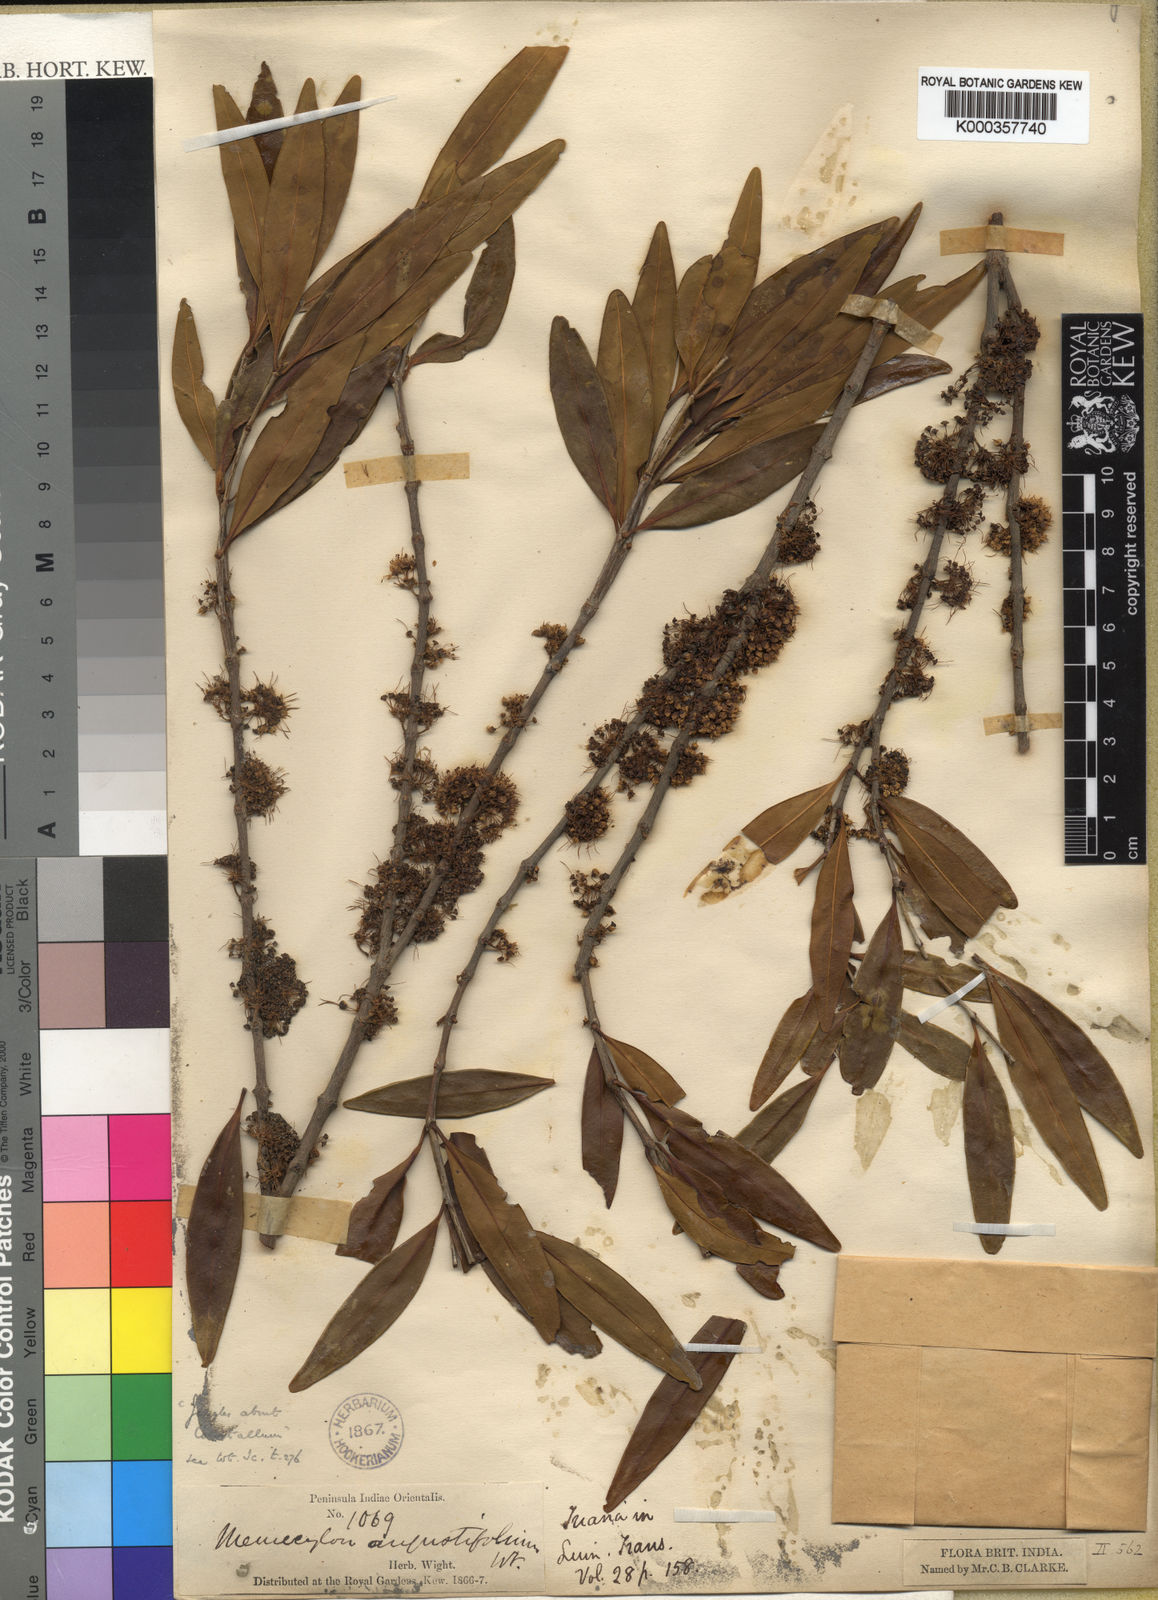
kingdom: Plantae
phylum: Tracheophyta
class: Magnoliopsida
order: Myrtales
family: Melastomataceae
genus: Memecylon
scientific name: Memecylon angustifolium
